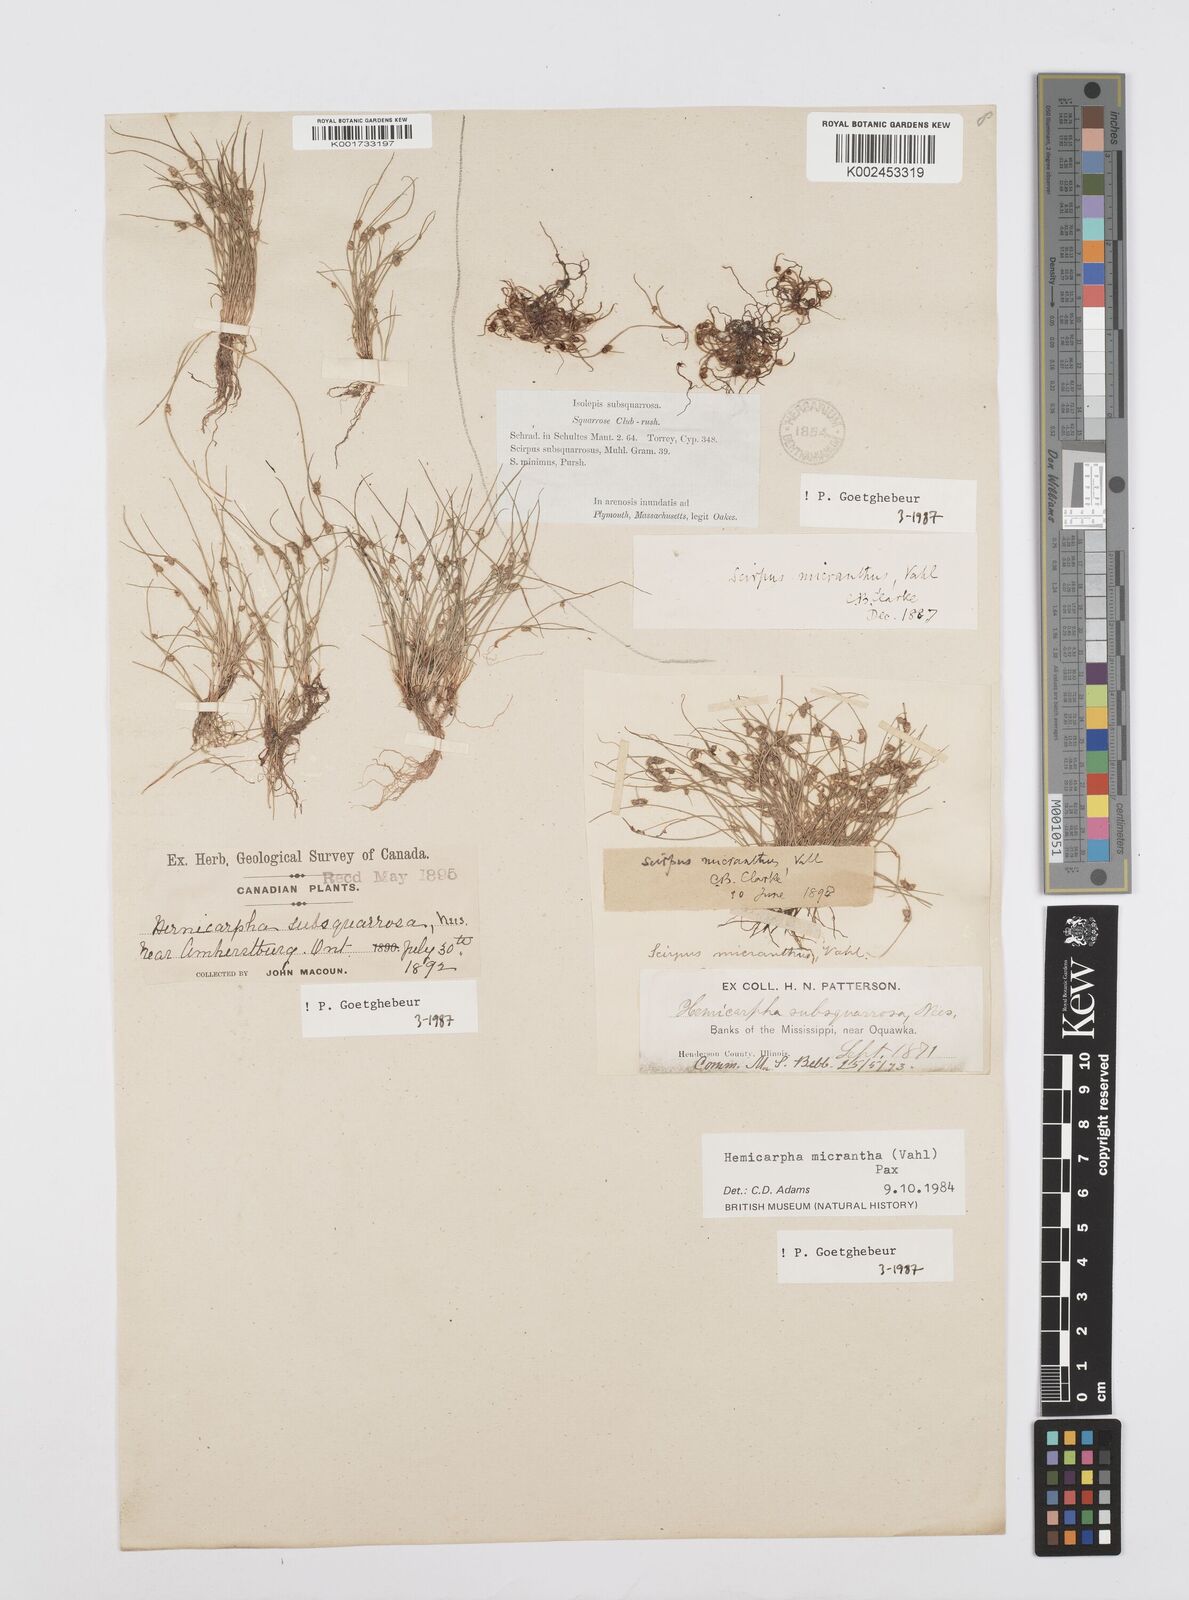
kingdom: Plantae
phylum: Tracheophyta
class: Liliopsida
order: Poales
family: Cyperaceae
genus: Cyperus
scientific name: Cyperus
